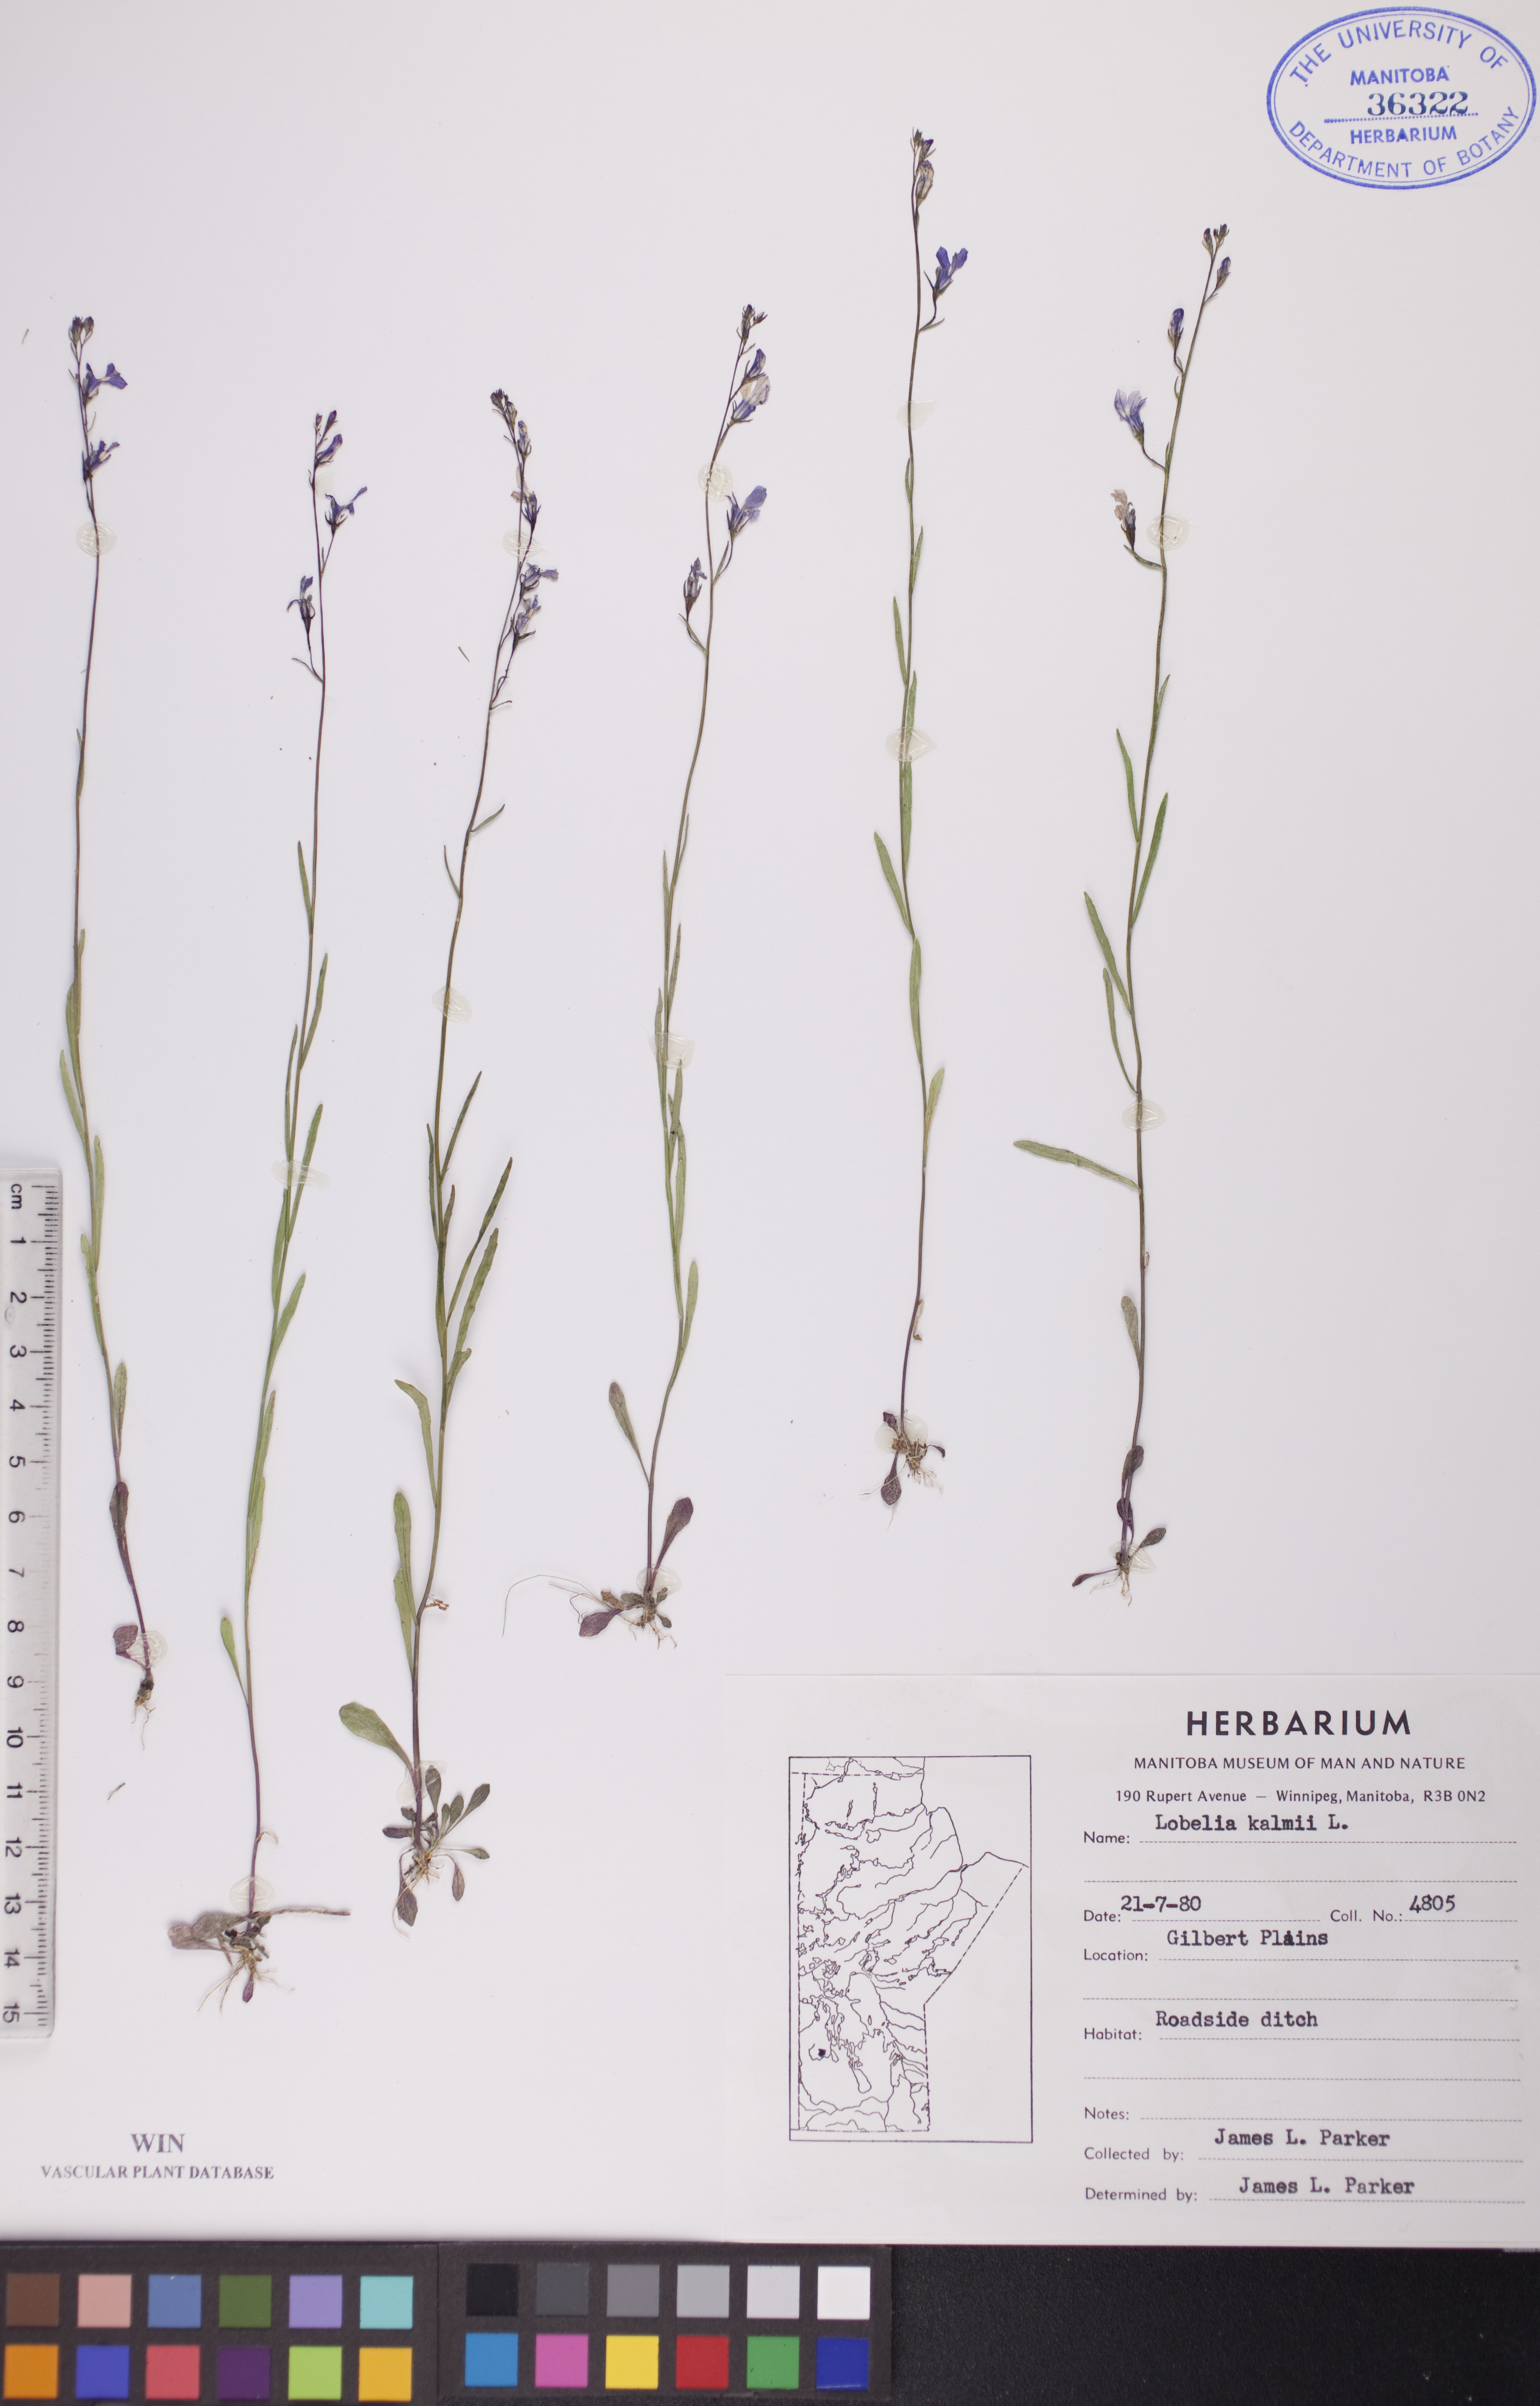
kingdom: Plantae
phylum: Tracheophyta
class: Magnoliopsida
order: Asterales
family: Campanulaceae
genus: Lobelia
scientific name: Lobelia kalmii
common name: Kalm's lobelia
